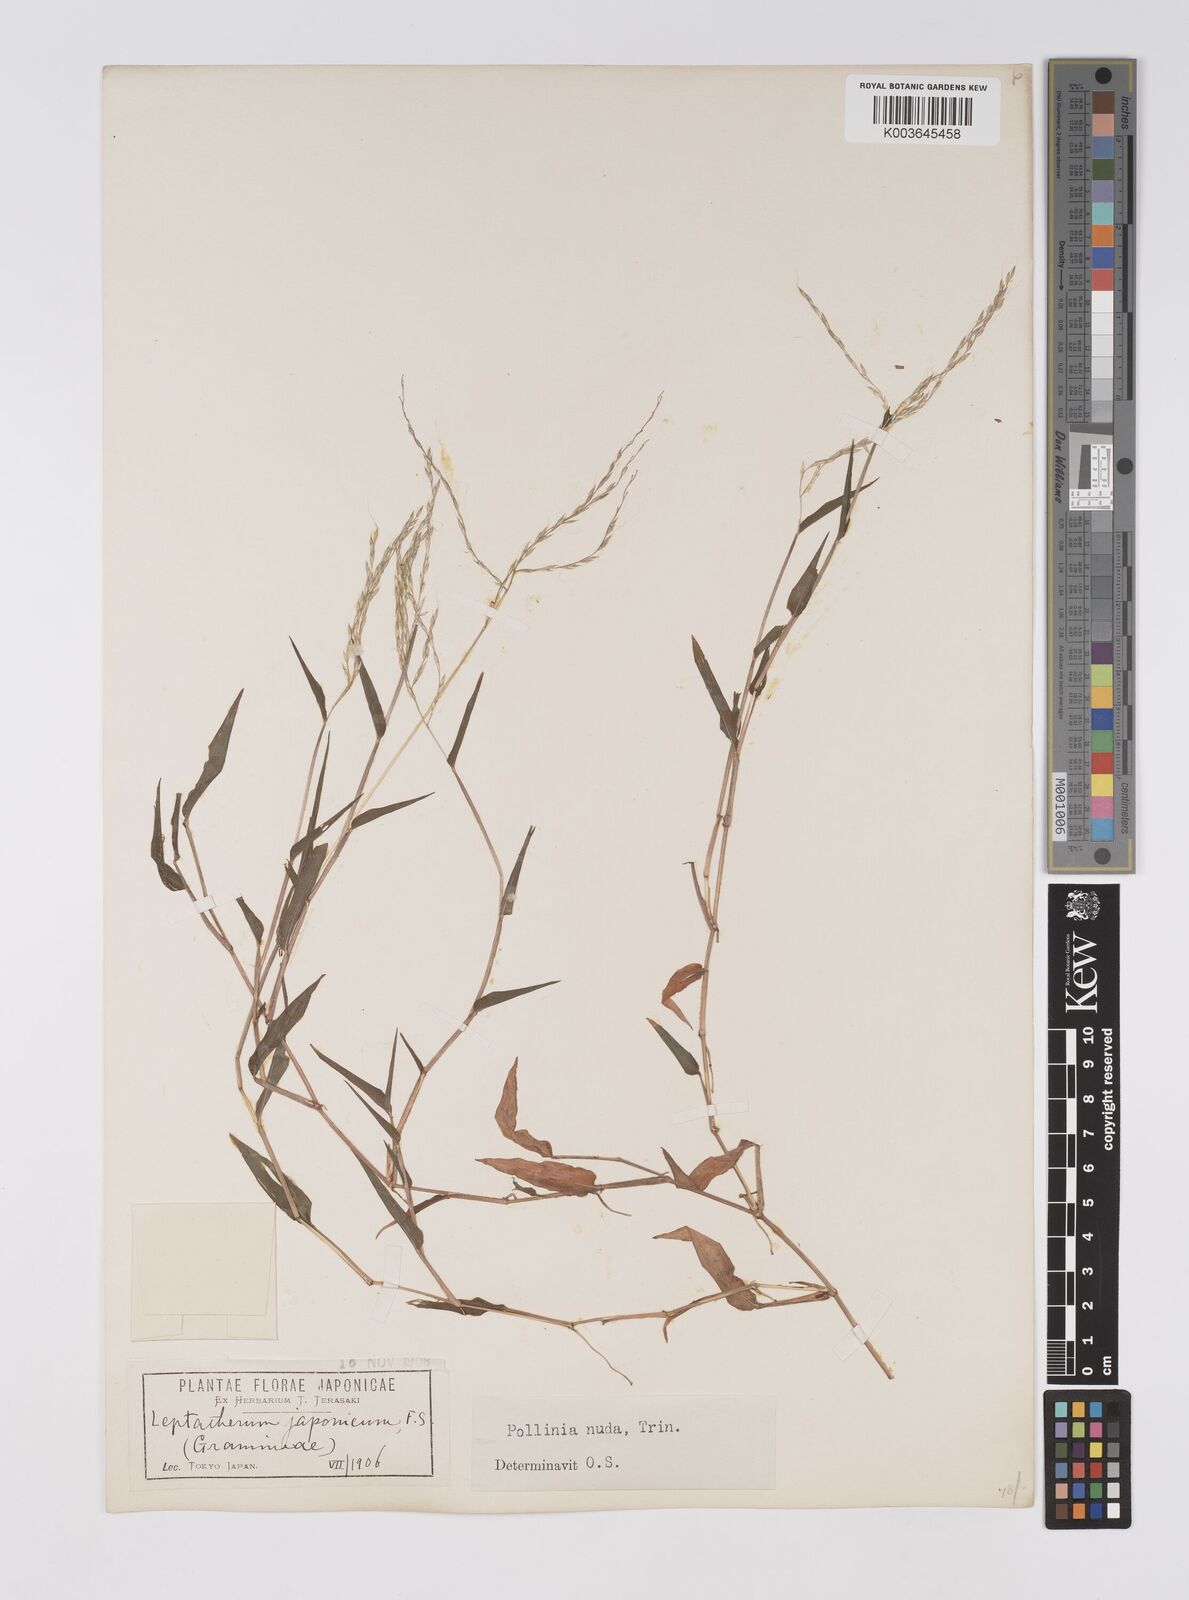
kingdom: Plantae
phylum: Tracheophyta
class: Liliopsida
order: Poales
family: Poaceae
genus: Microstegium
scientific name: Microstegium japonicum
